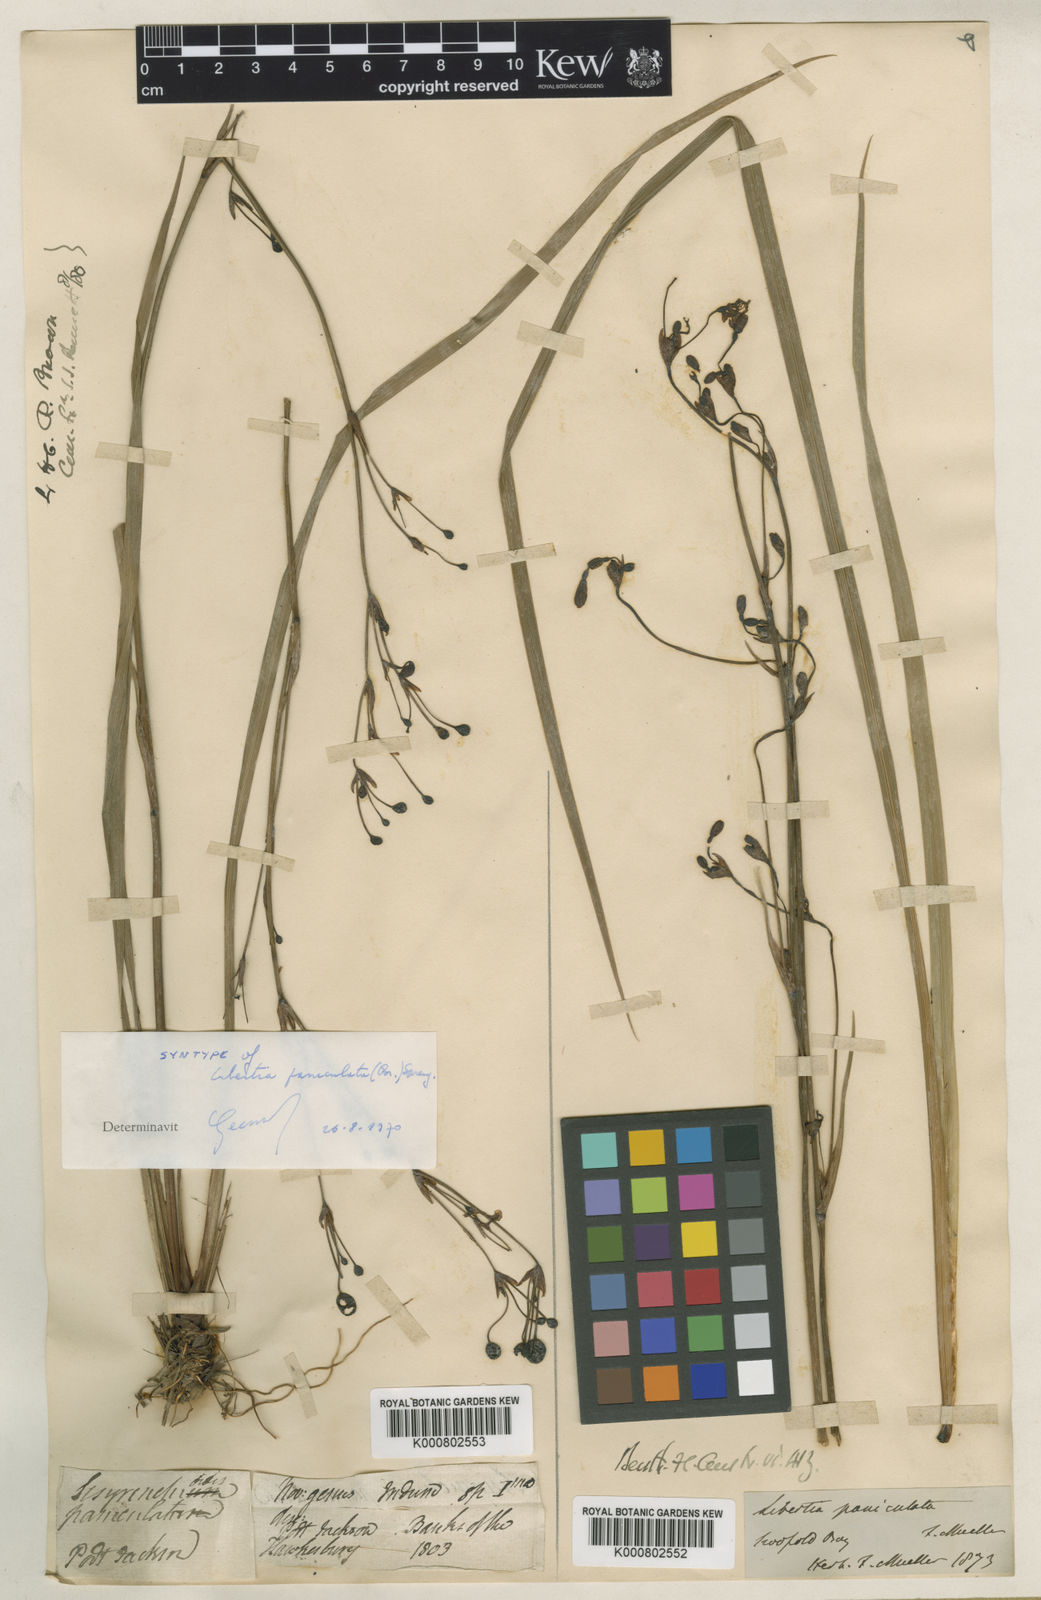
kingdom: Plantae
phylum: Tracheophyta
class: Liliopsida
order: Asparagales
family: Iridaceae
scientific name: Iridaceae
